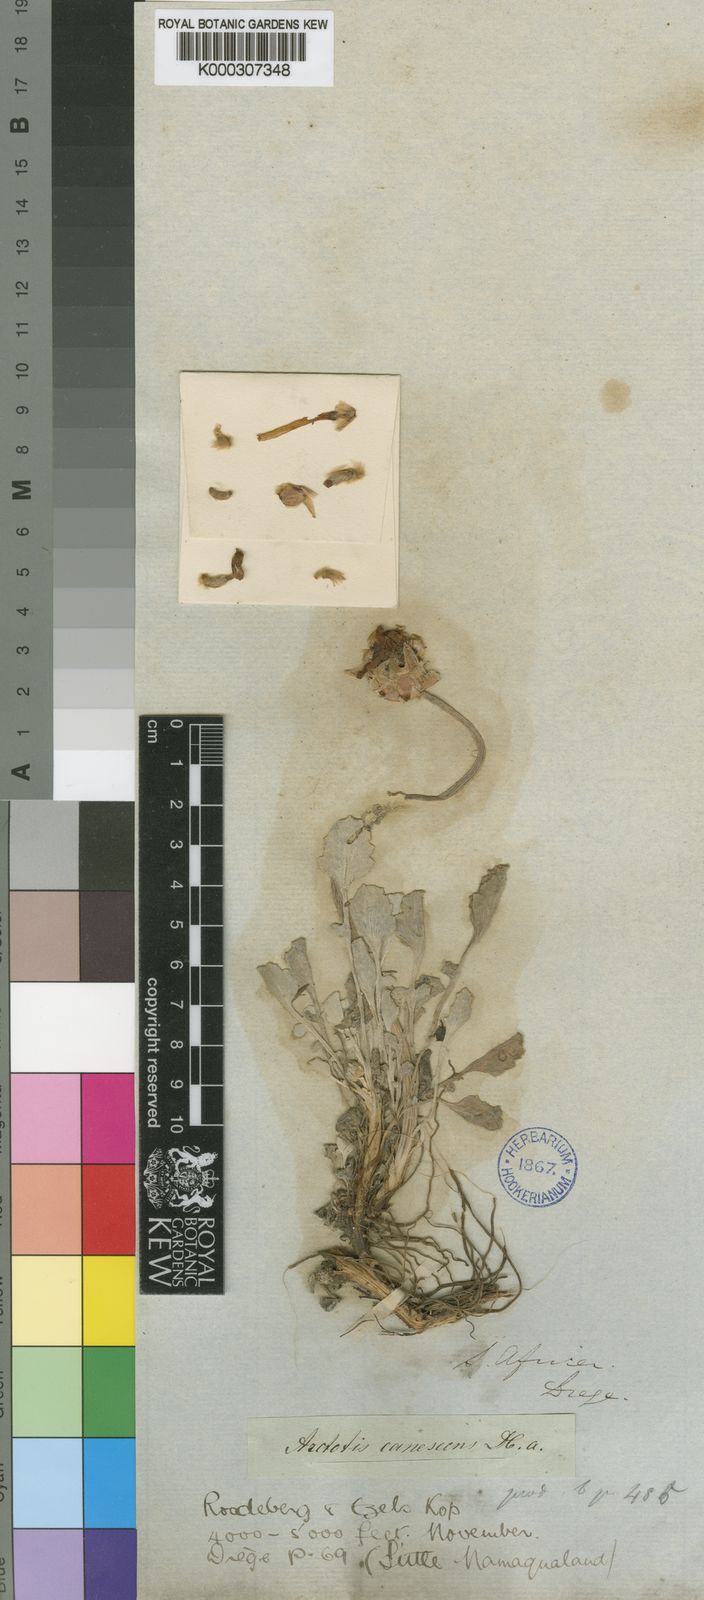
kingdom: Plantae
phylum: Tracheophyta
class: Magnoliopsida
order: Asterales
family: Asteraceae
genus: Arctotis
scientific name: Arctotis diffusa
